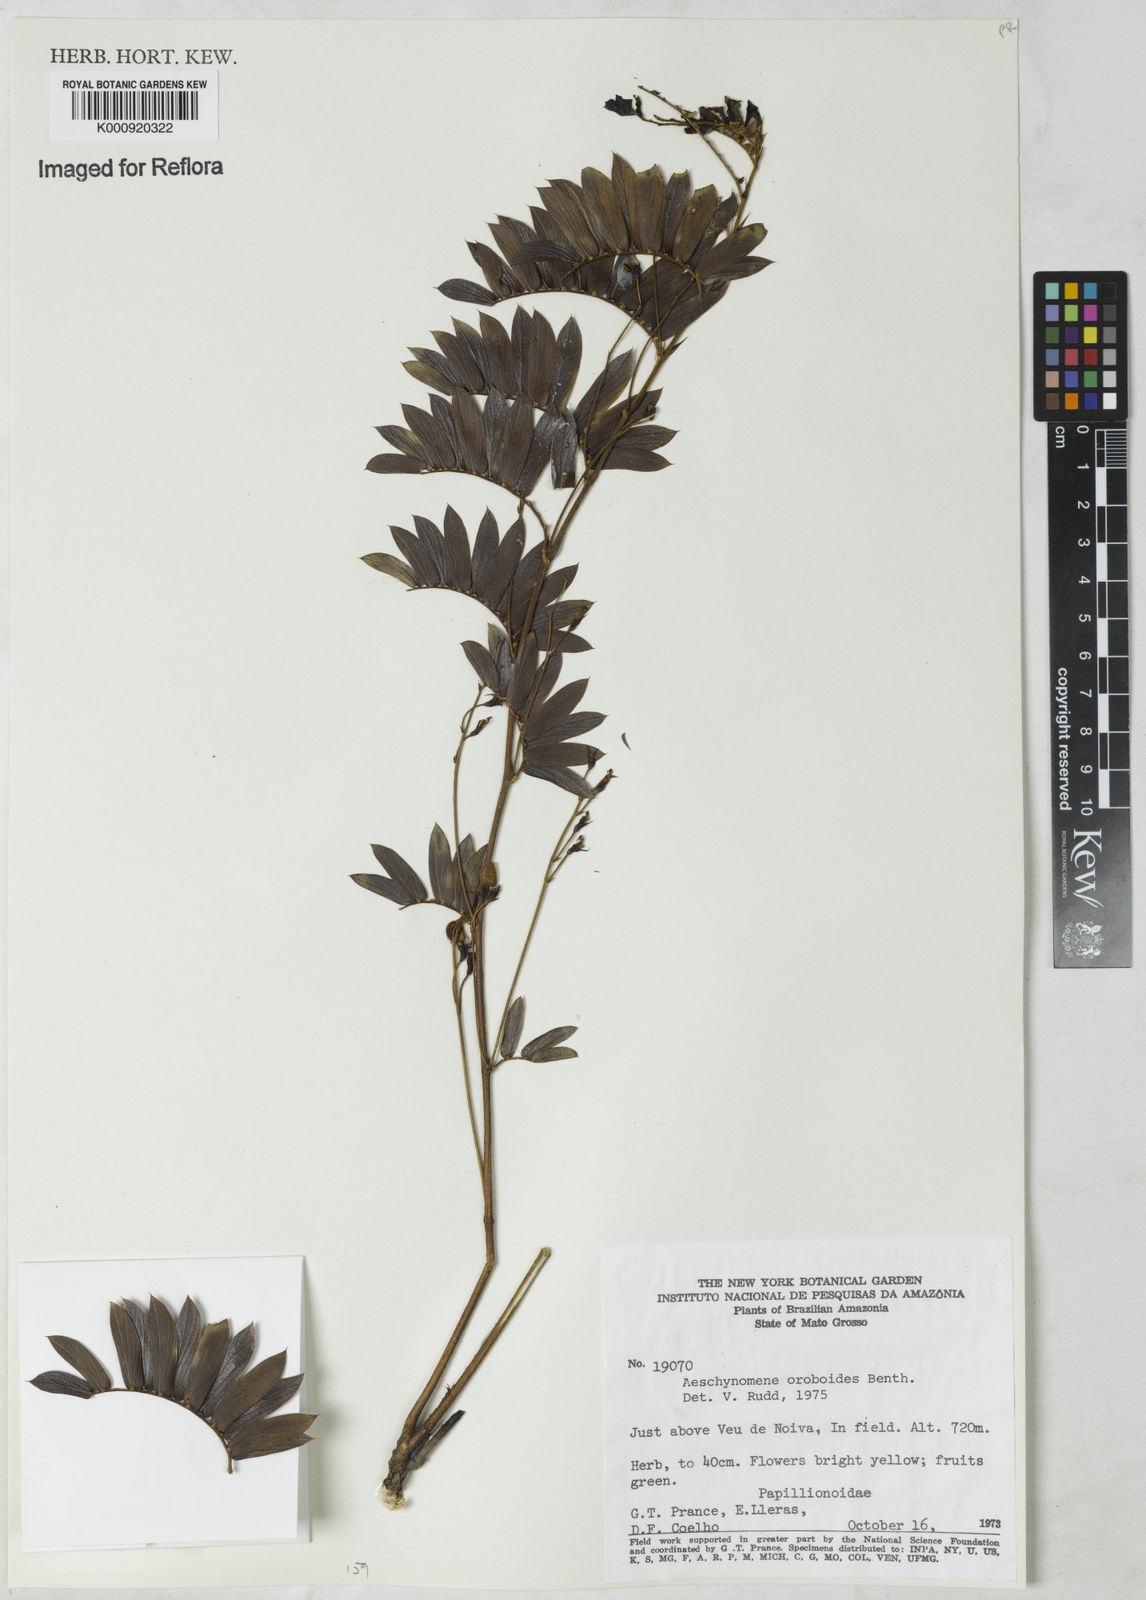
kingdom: Plantae
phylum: Tracheophyta
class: Magnoliopsida
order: Fabales
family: Fabaceae
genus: Ctenodon
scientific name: Ctenodon oroboides
